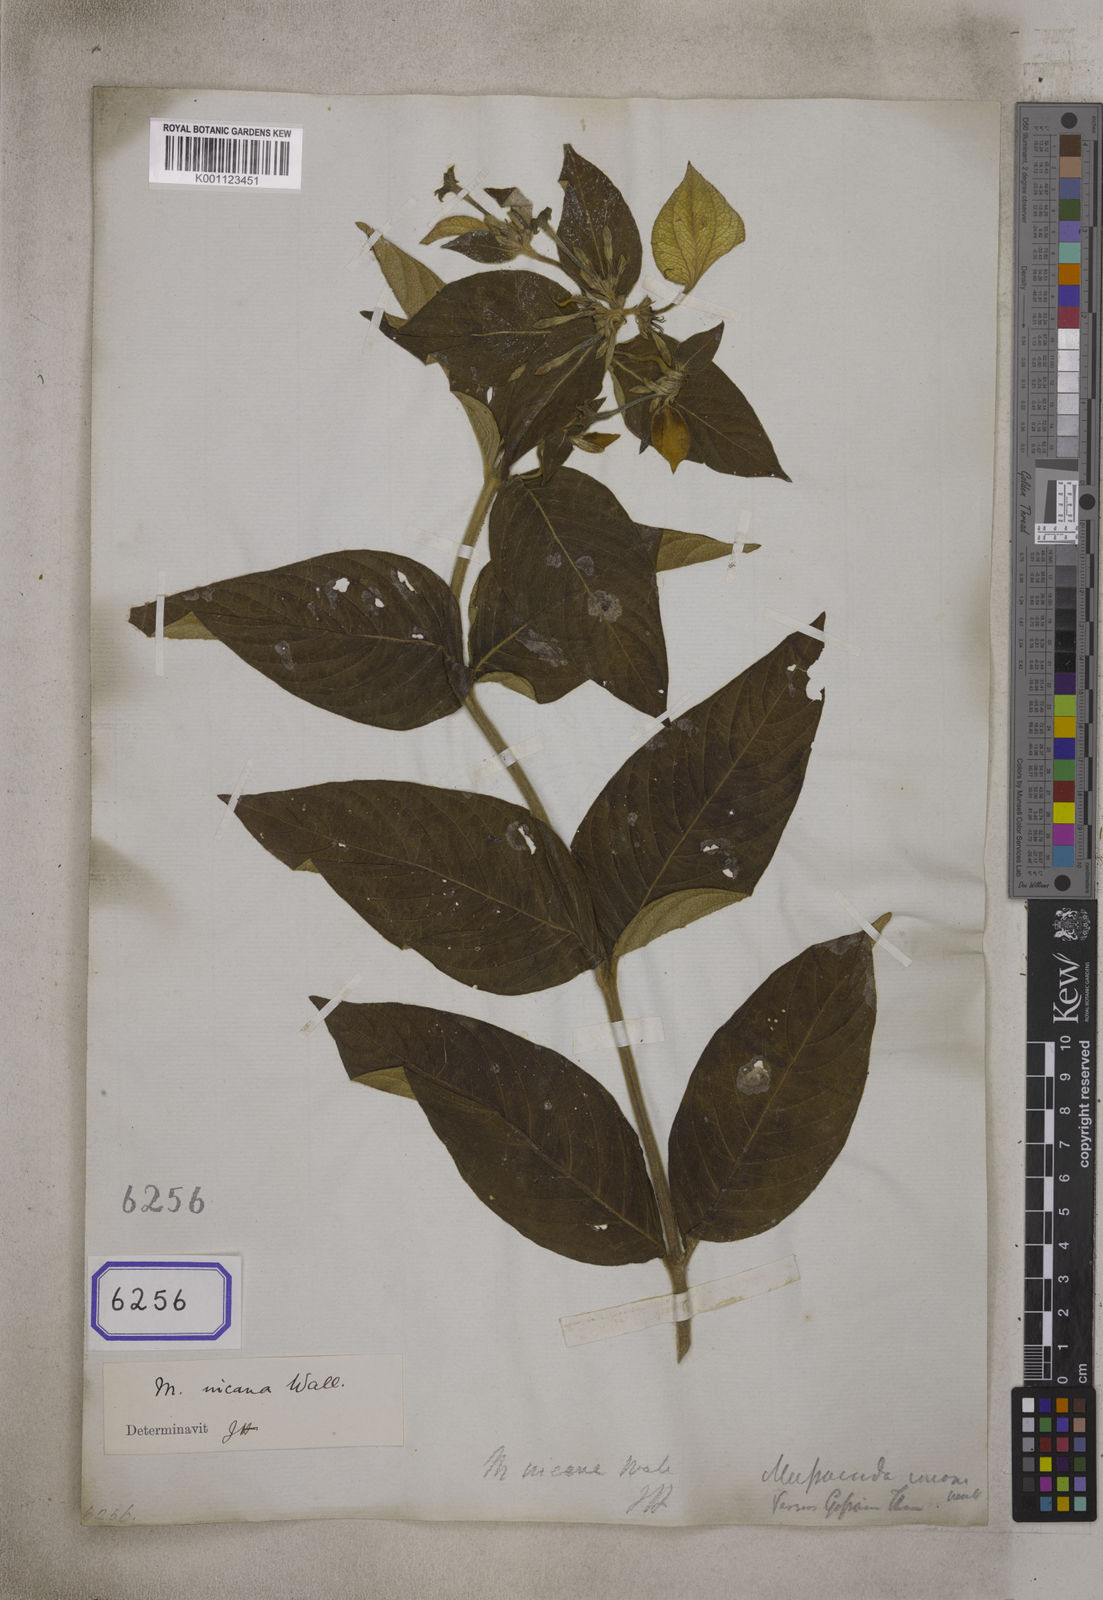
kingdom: Plantae
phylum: Tracheophyta
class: Magnoliopsida
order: Gentianales
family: Rubiaceae
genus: Mussaenda
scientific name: Mussaenda incana
